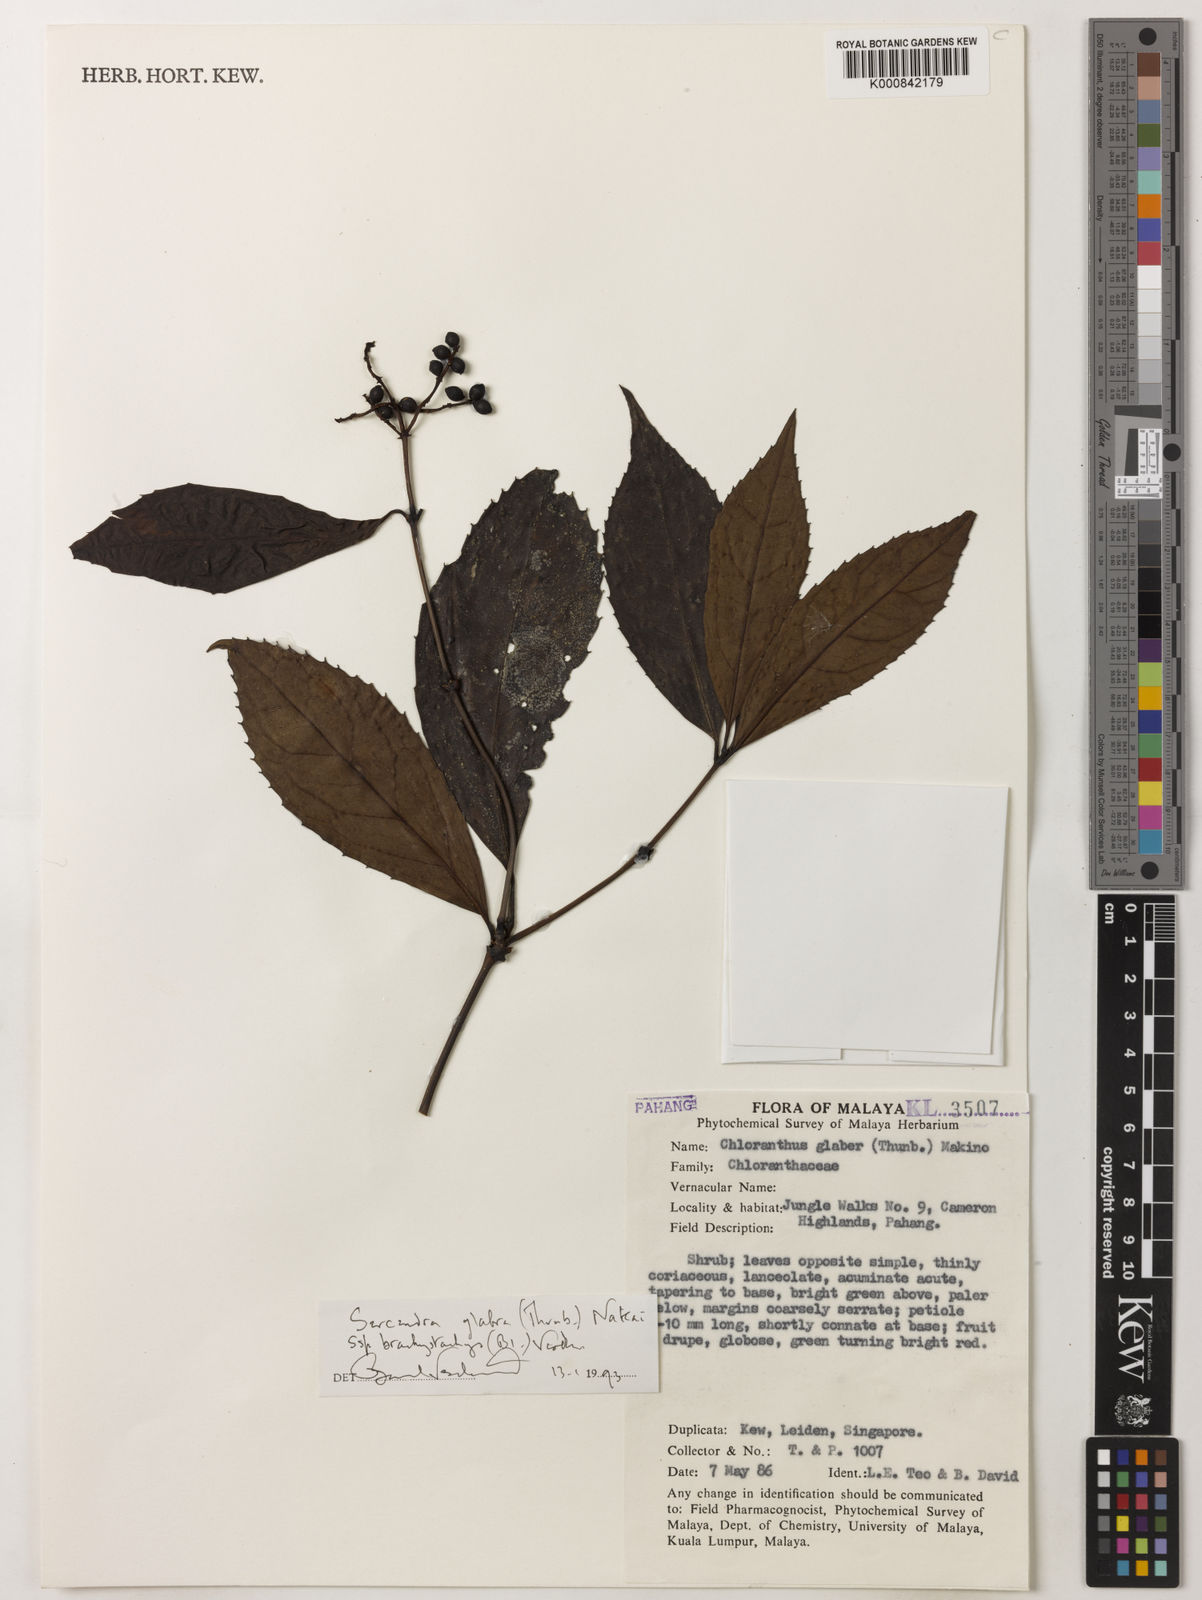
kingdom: Plantae
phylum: Tracheophyta
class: Magnoliopsida
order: Chloranthales
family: Chloranthaceae
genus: Sarcandra
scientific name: Sarcandra glabra
